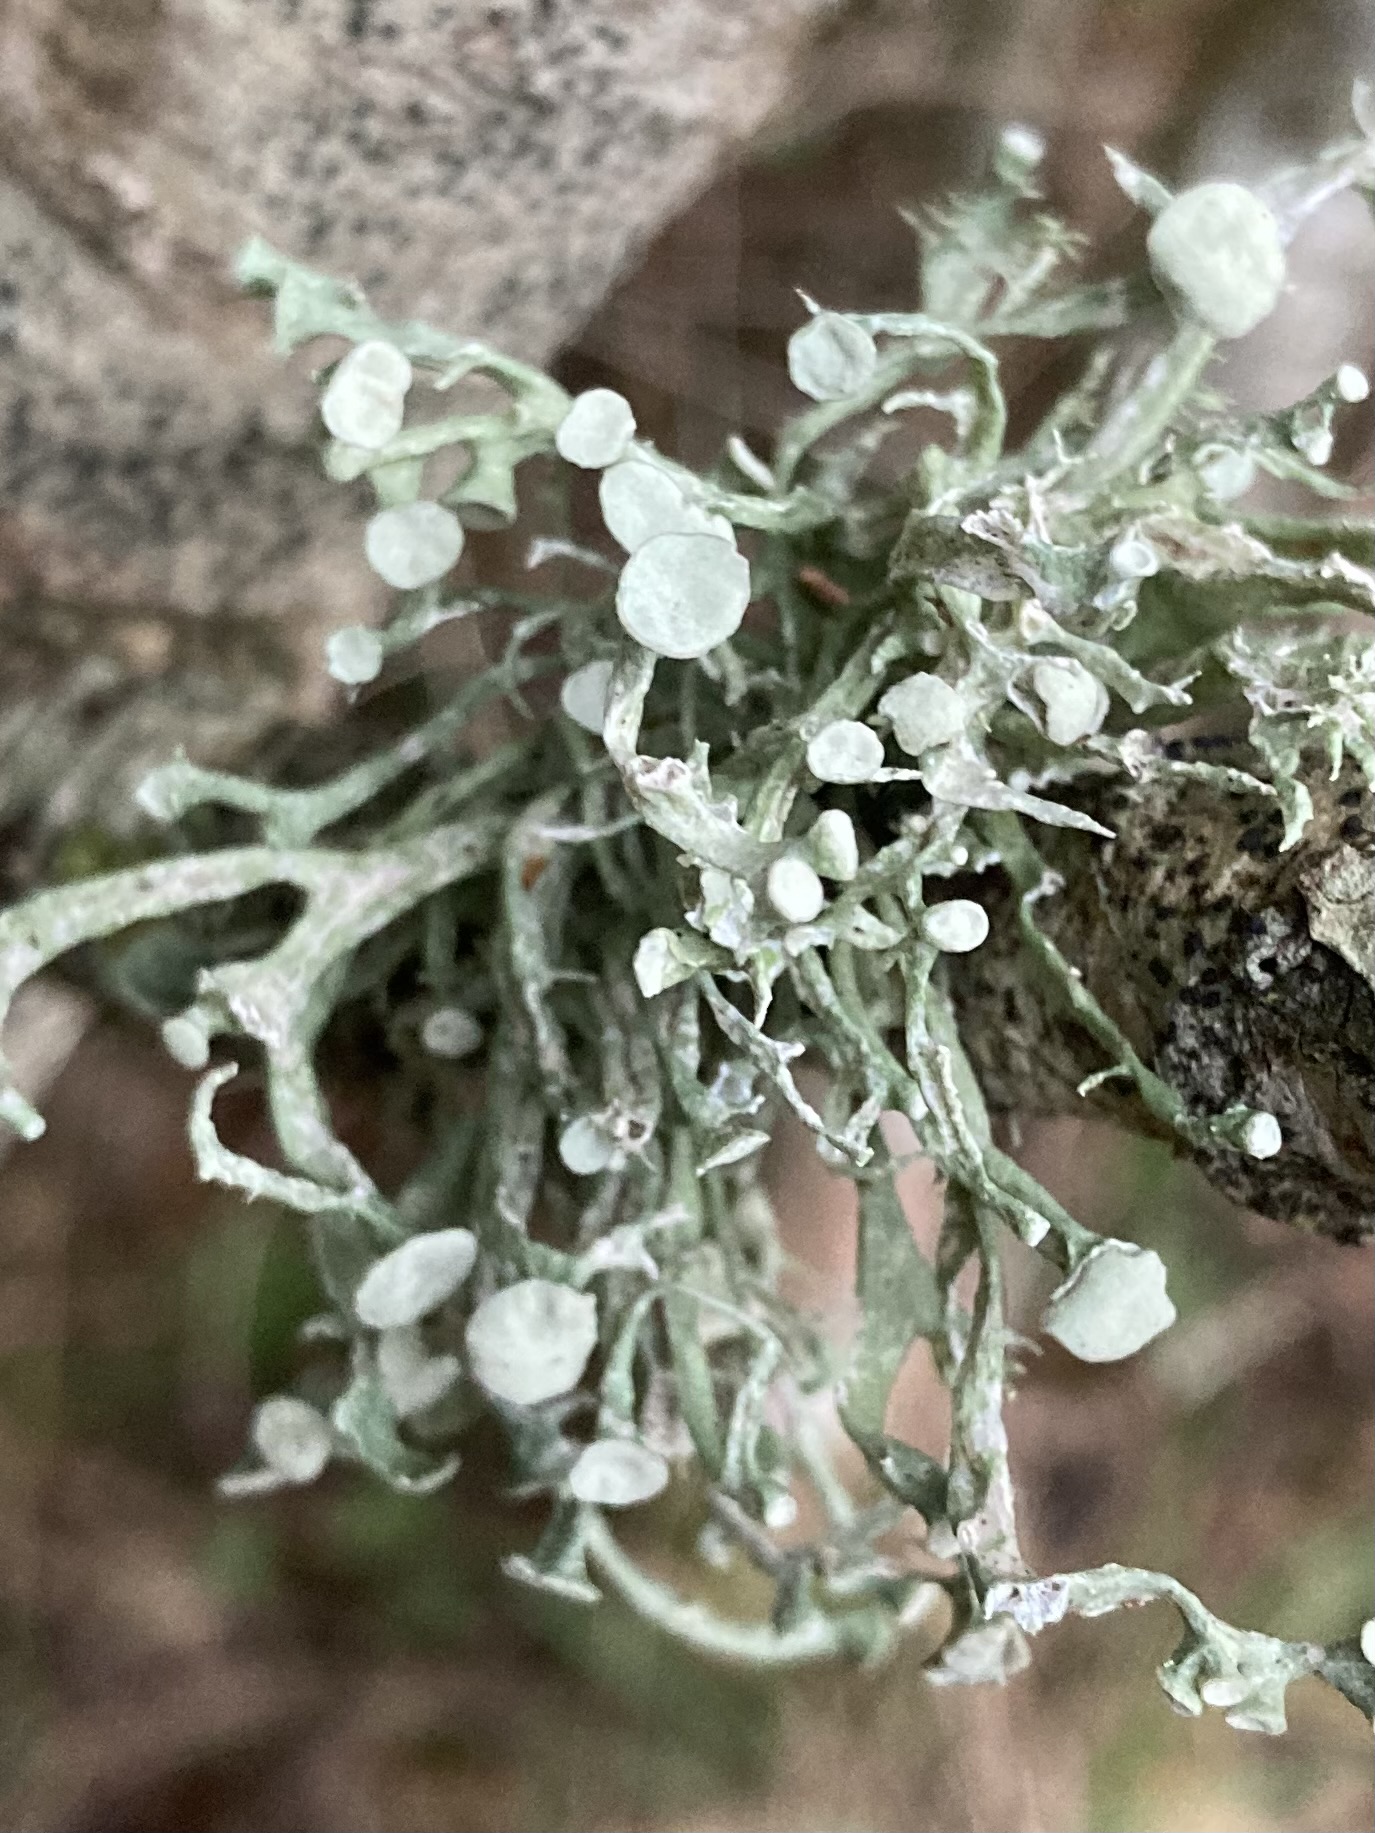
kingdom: Fungi
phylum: Ascomycota
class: Lecanoromycetes
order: Lecanorales
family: Ramalinaceae
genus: Ramalina
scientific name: Ramalina fastigiata
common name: tue-grenlav
